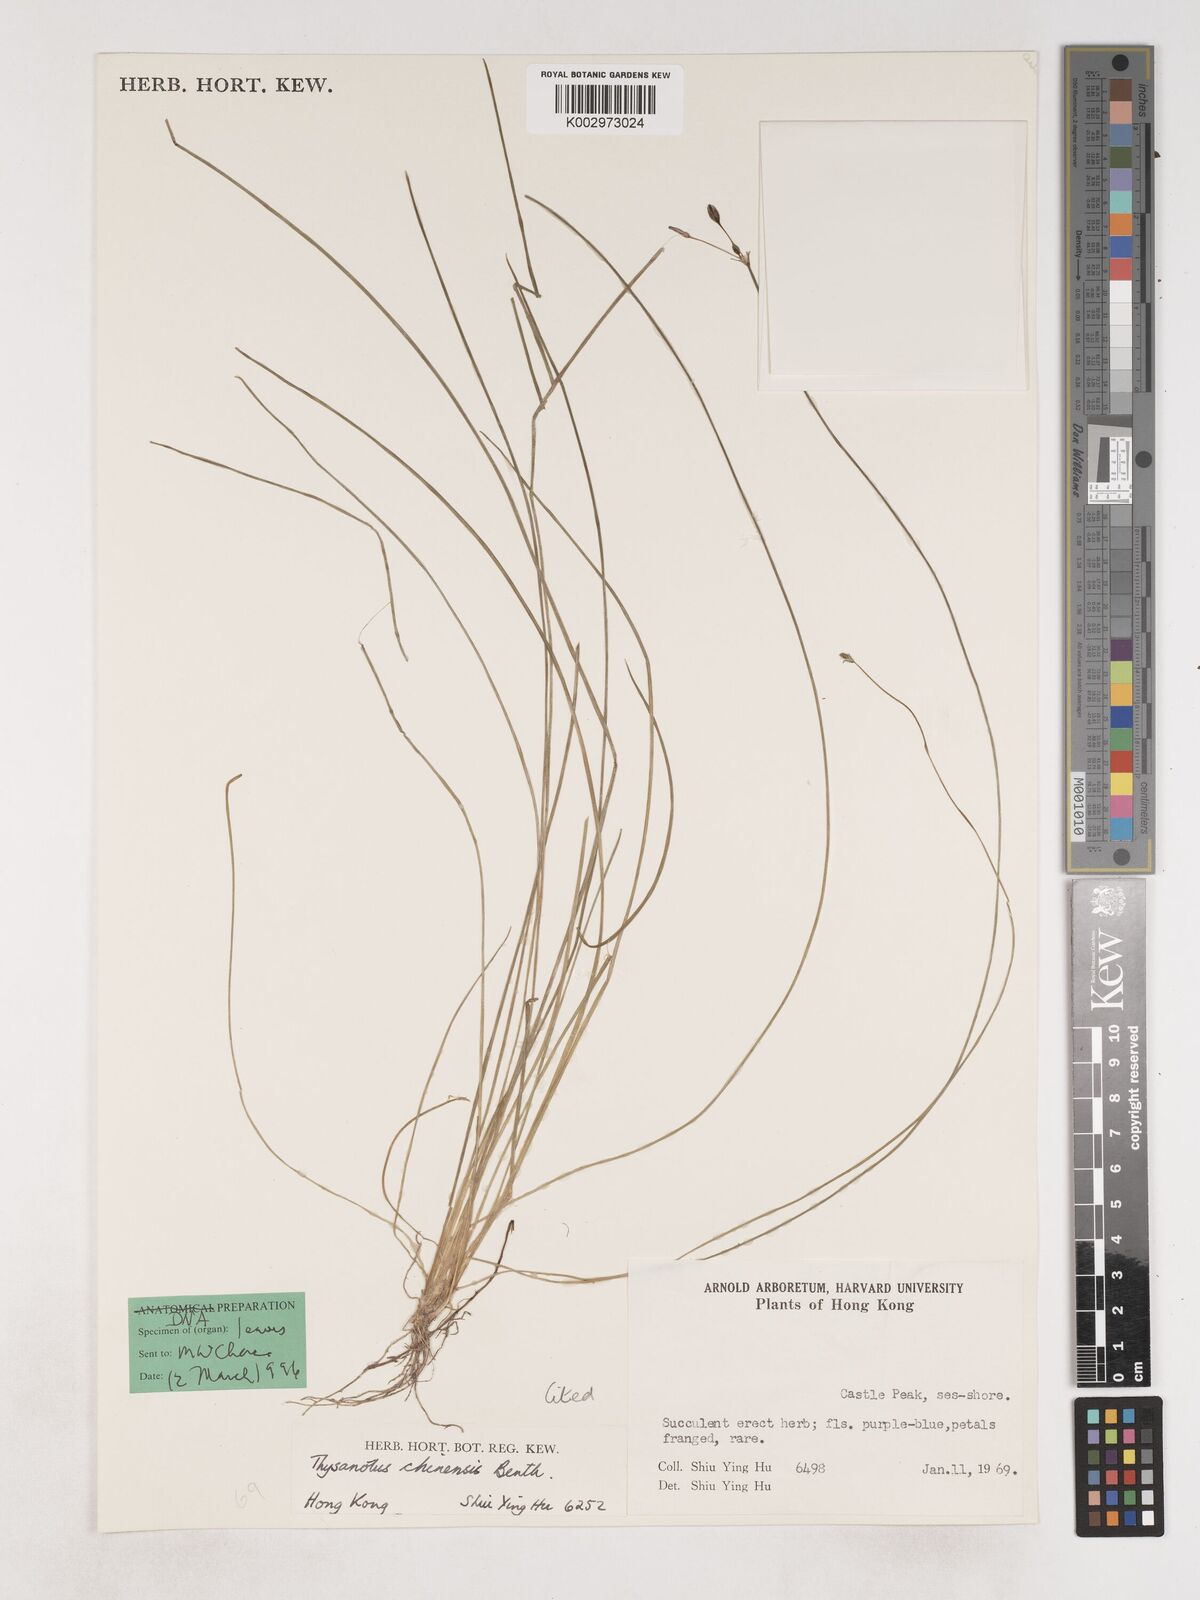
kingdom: Plantae
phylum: Tracheophyta
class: Liliopsida
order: Asparagales
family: Asparagaceae
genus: Thysanotus
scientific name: Thysanotus chinensis
